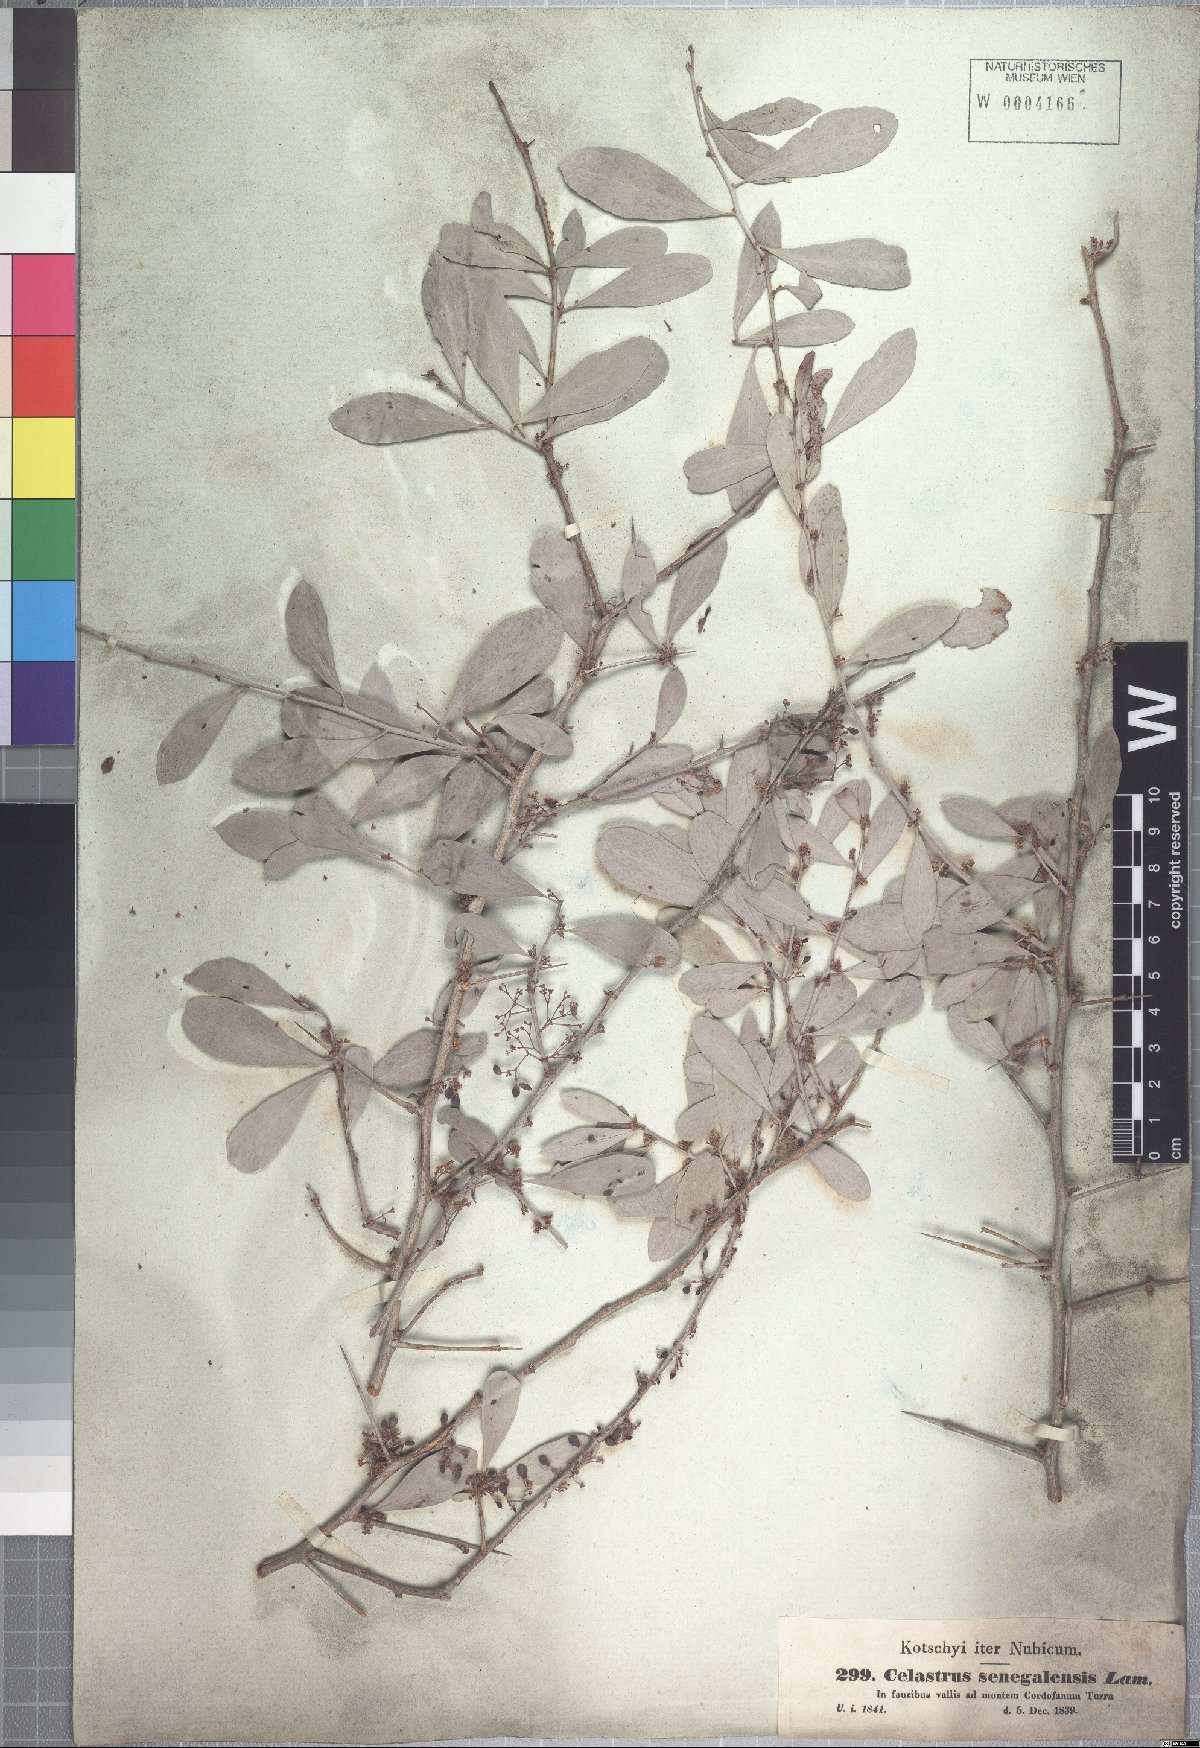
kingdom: Plantae
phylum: Tracheophyta
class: Magnoliopsida
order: Celastrales
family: Celastraceae
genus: Gymnosporia
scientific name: Gymnosporia senegalensis
